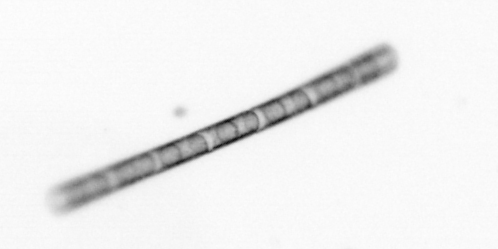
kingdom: Chromista
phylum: Ochrophyta
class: Bacillariophyceae
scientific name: Bacillariophyceae
